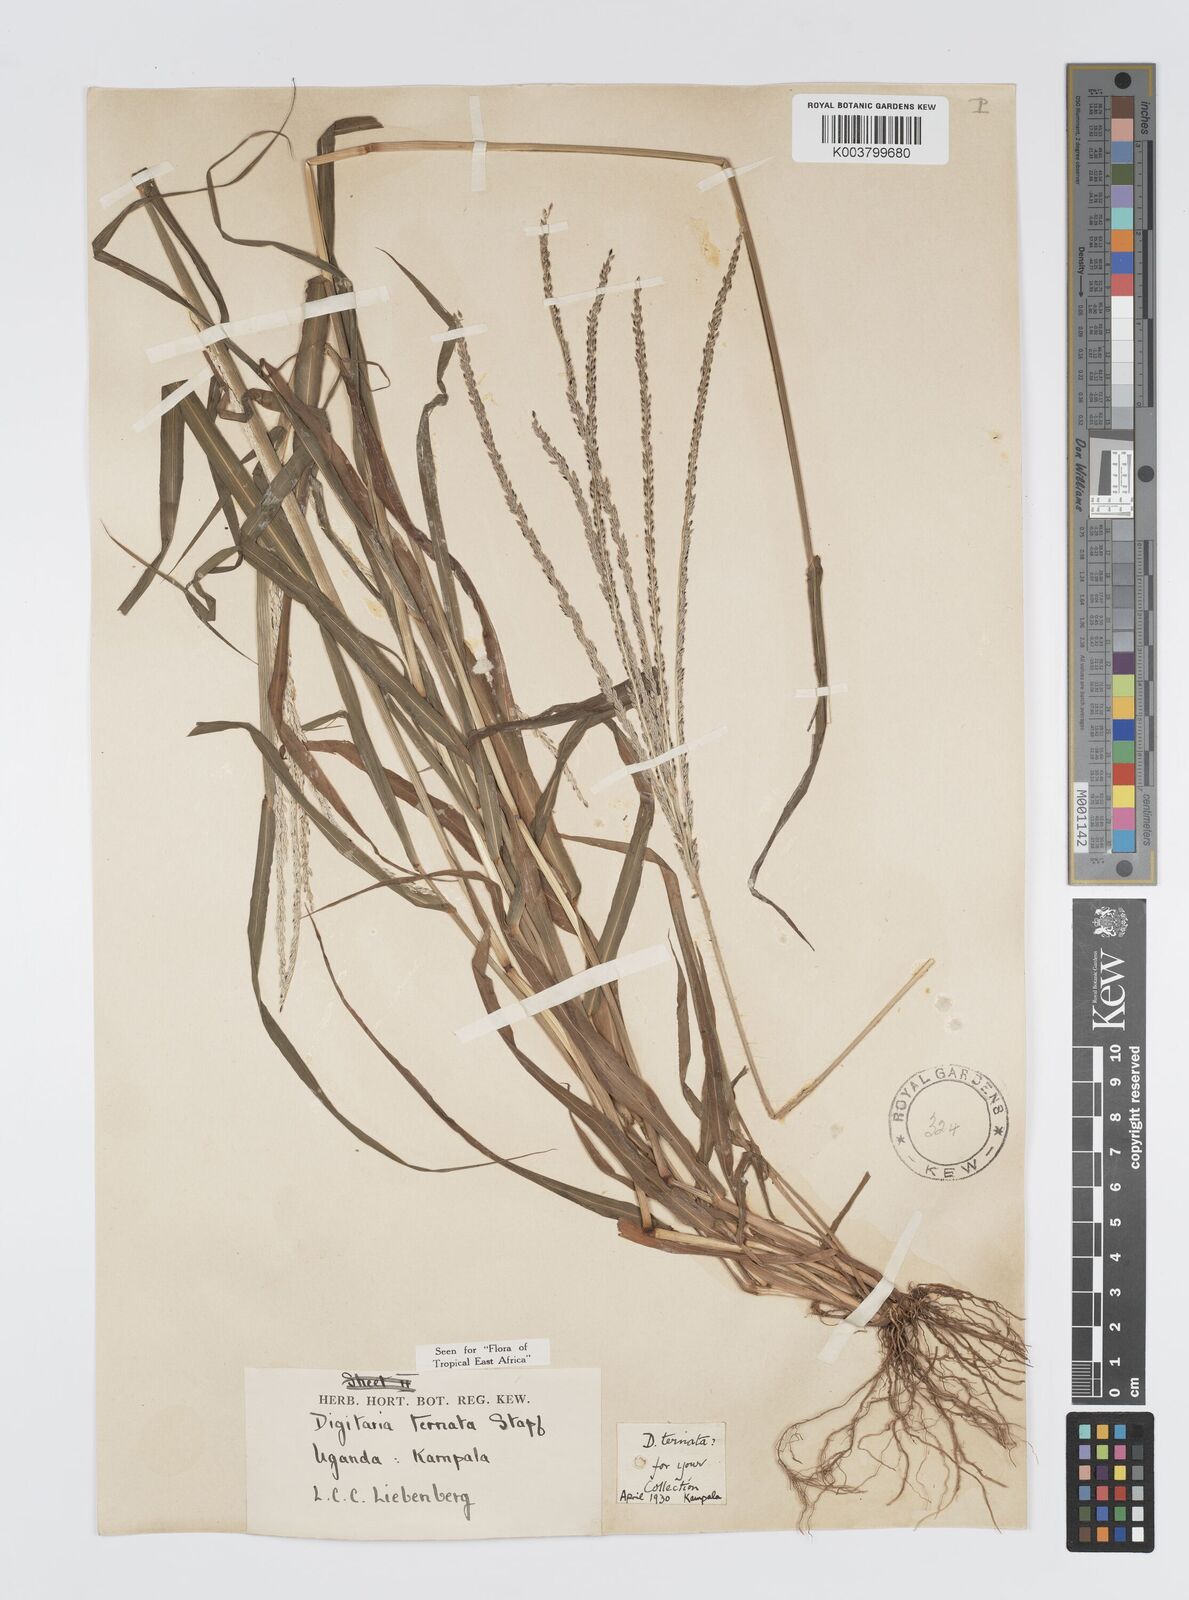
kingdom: Plantae
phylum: Tracheophyta
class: Liliopsida
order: Poales
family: Poaceae
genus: Digitaria
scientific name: Digitaria ternata
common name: Blackseed crabgrass
